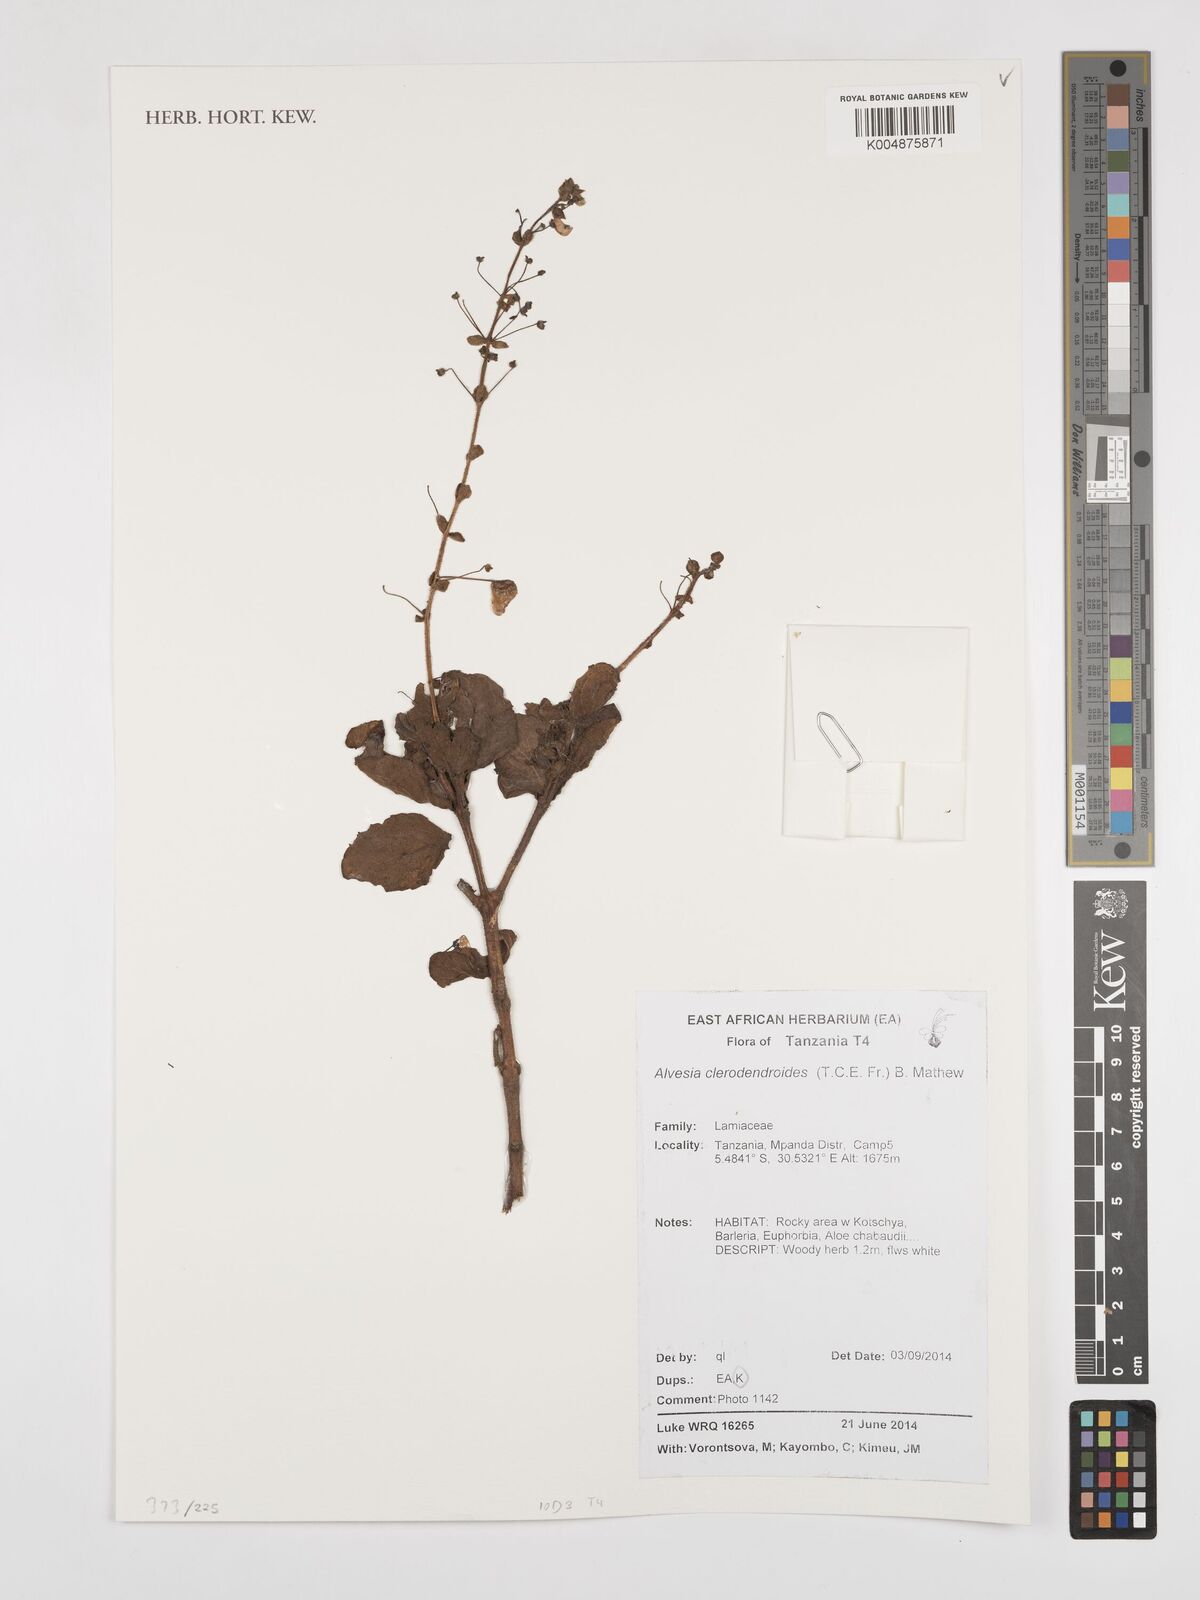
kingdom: Plantae
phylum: Tracheophyta
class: Magnoliopsida
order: Lamiales
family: Lamiaceae
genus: Alvesia
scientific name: Alvesia clerodendroides
